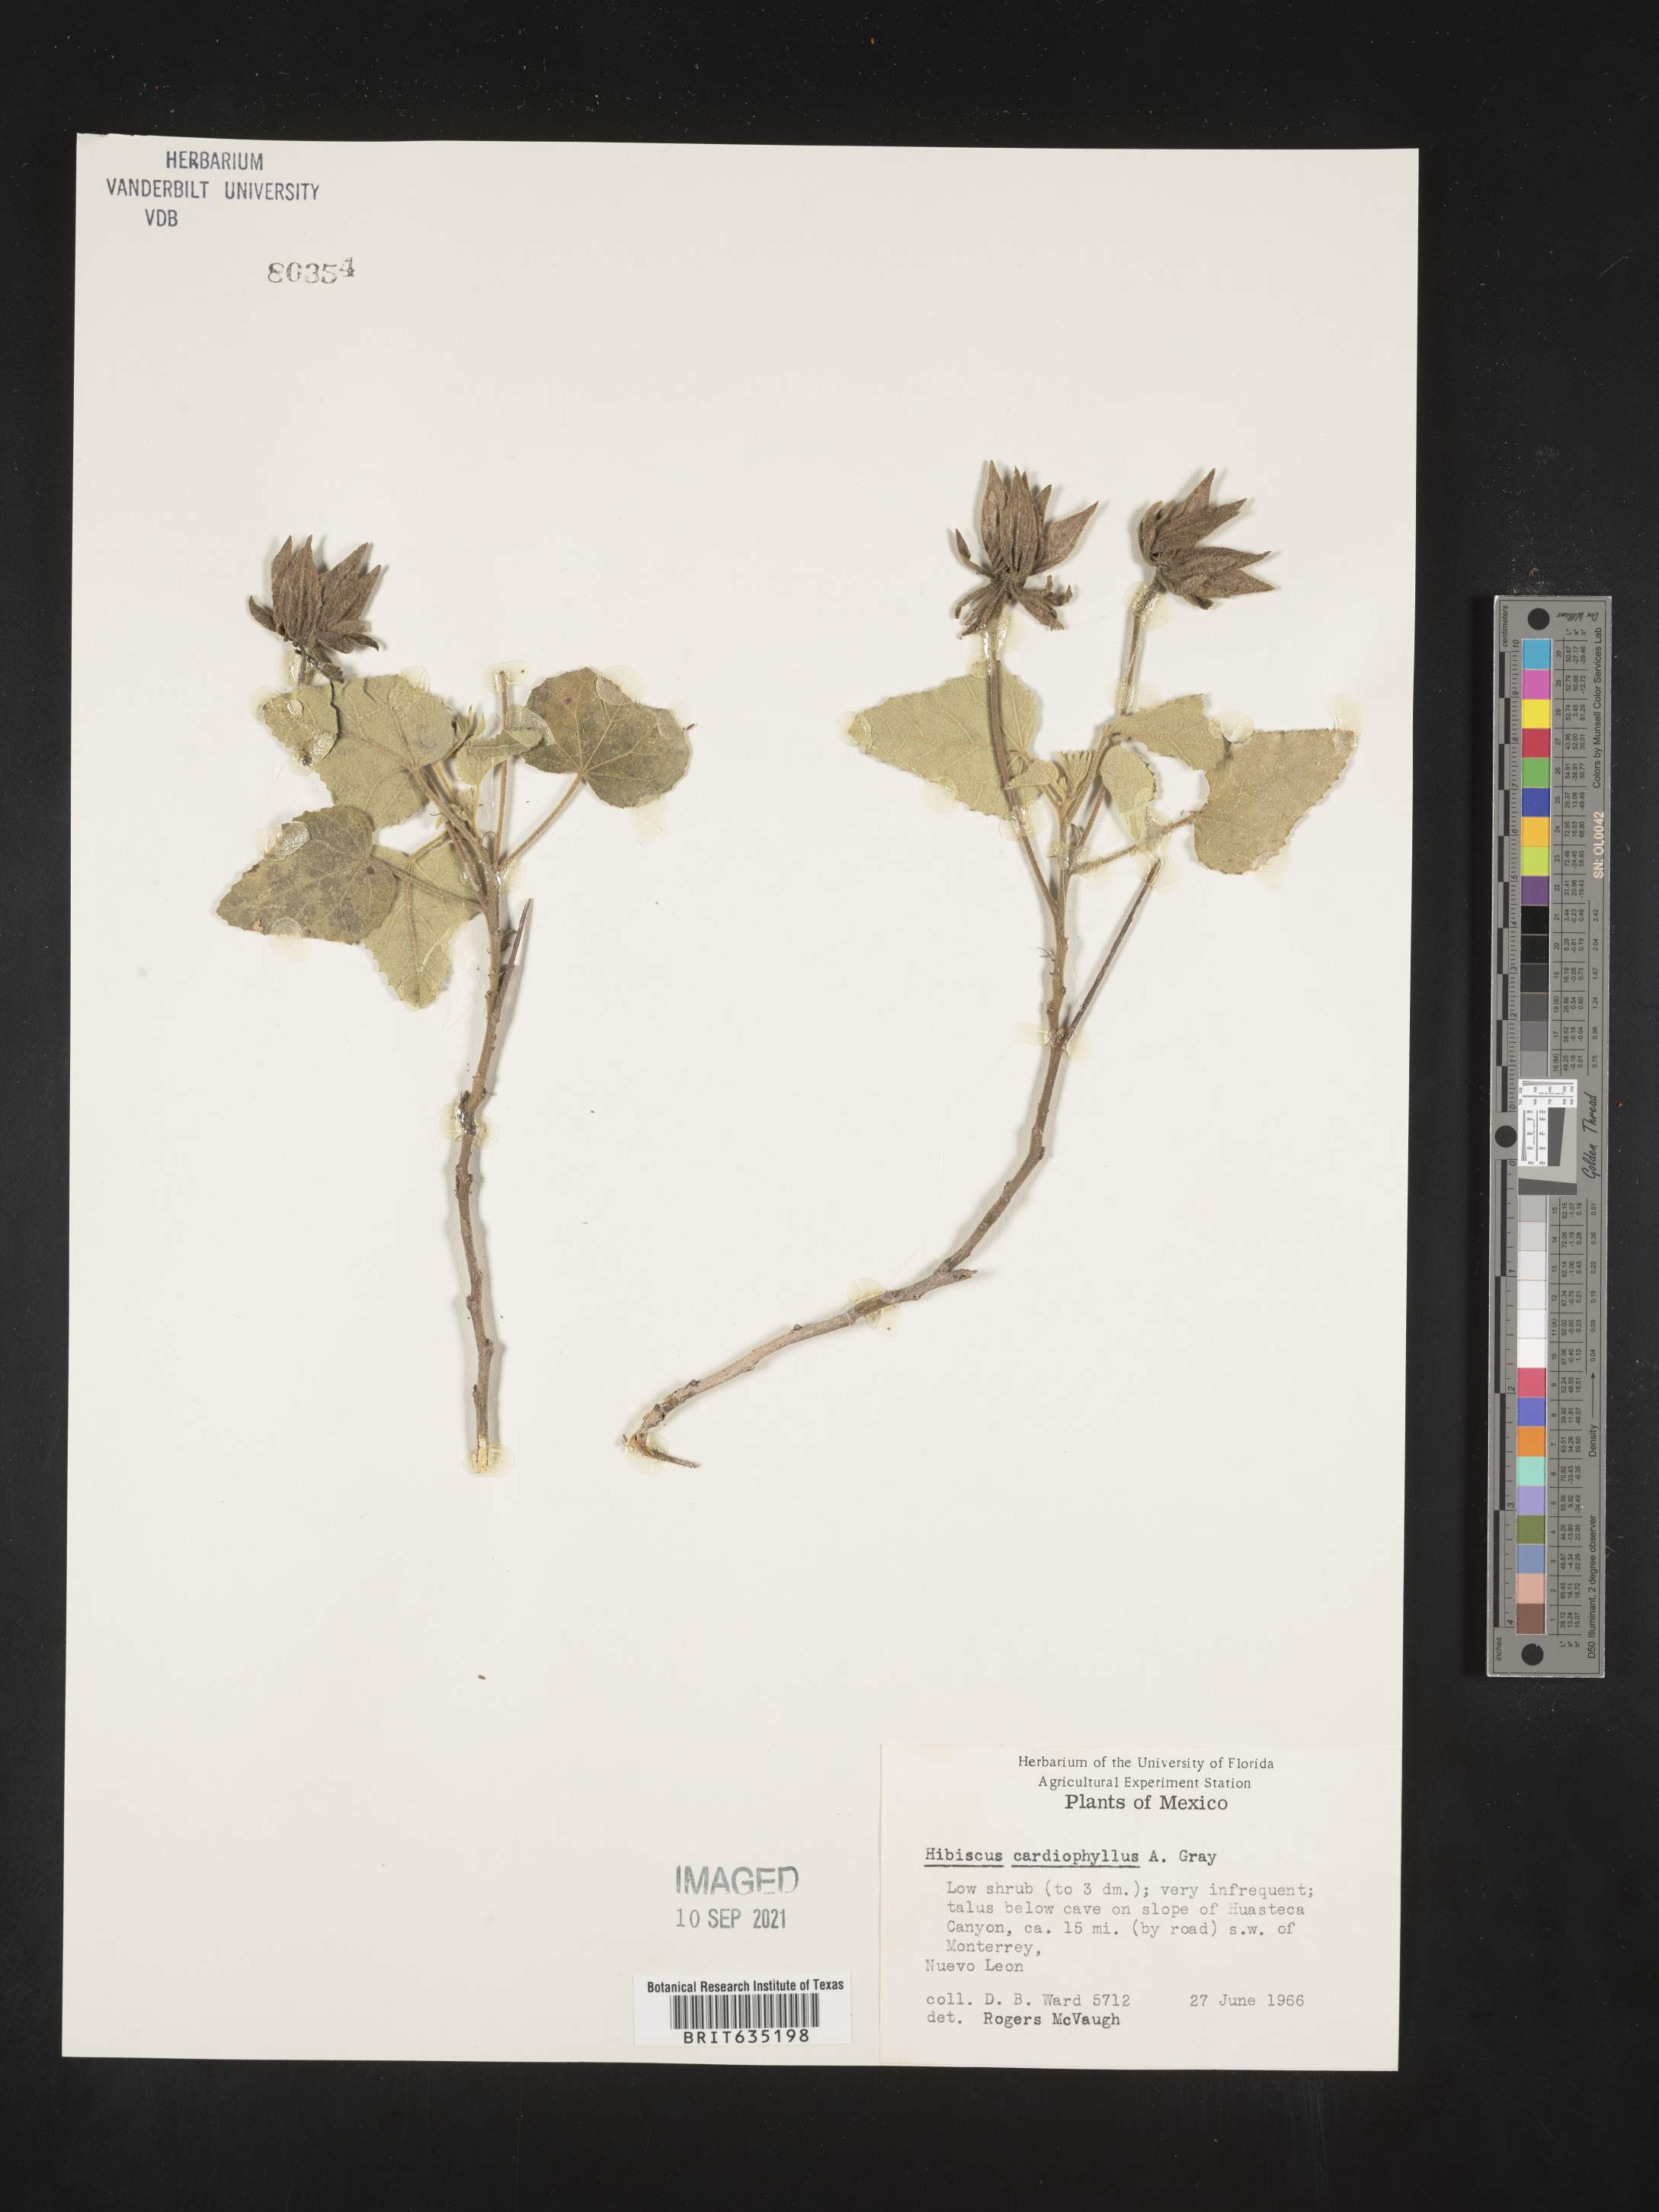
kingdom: Plantae
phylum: Tracheophyta
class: Magnoliopsida
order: Malvales
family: Malvaceae
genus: Hibiscus
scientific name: Hibiscus
